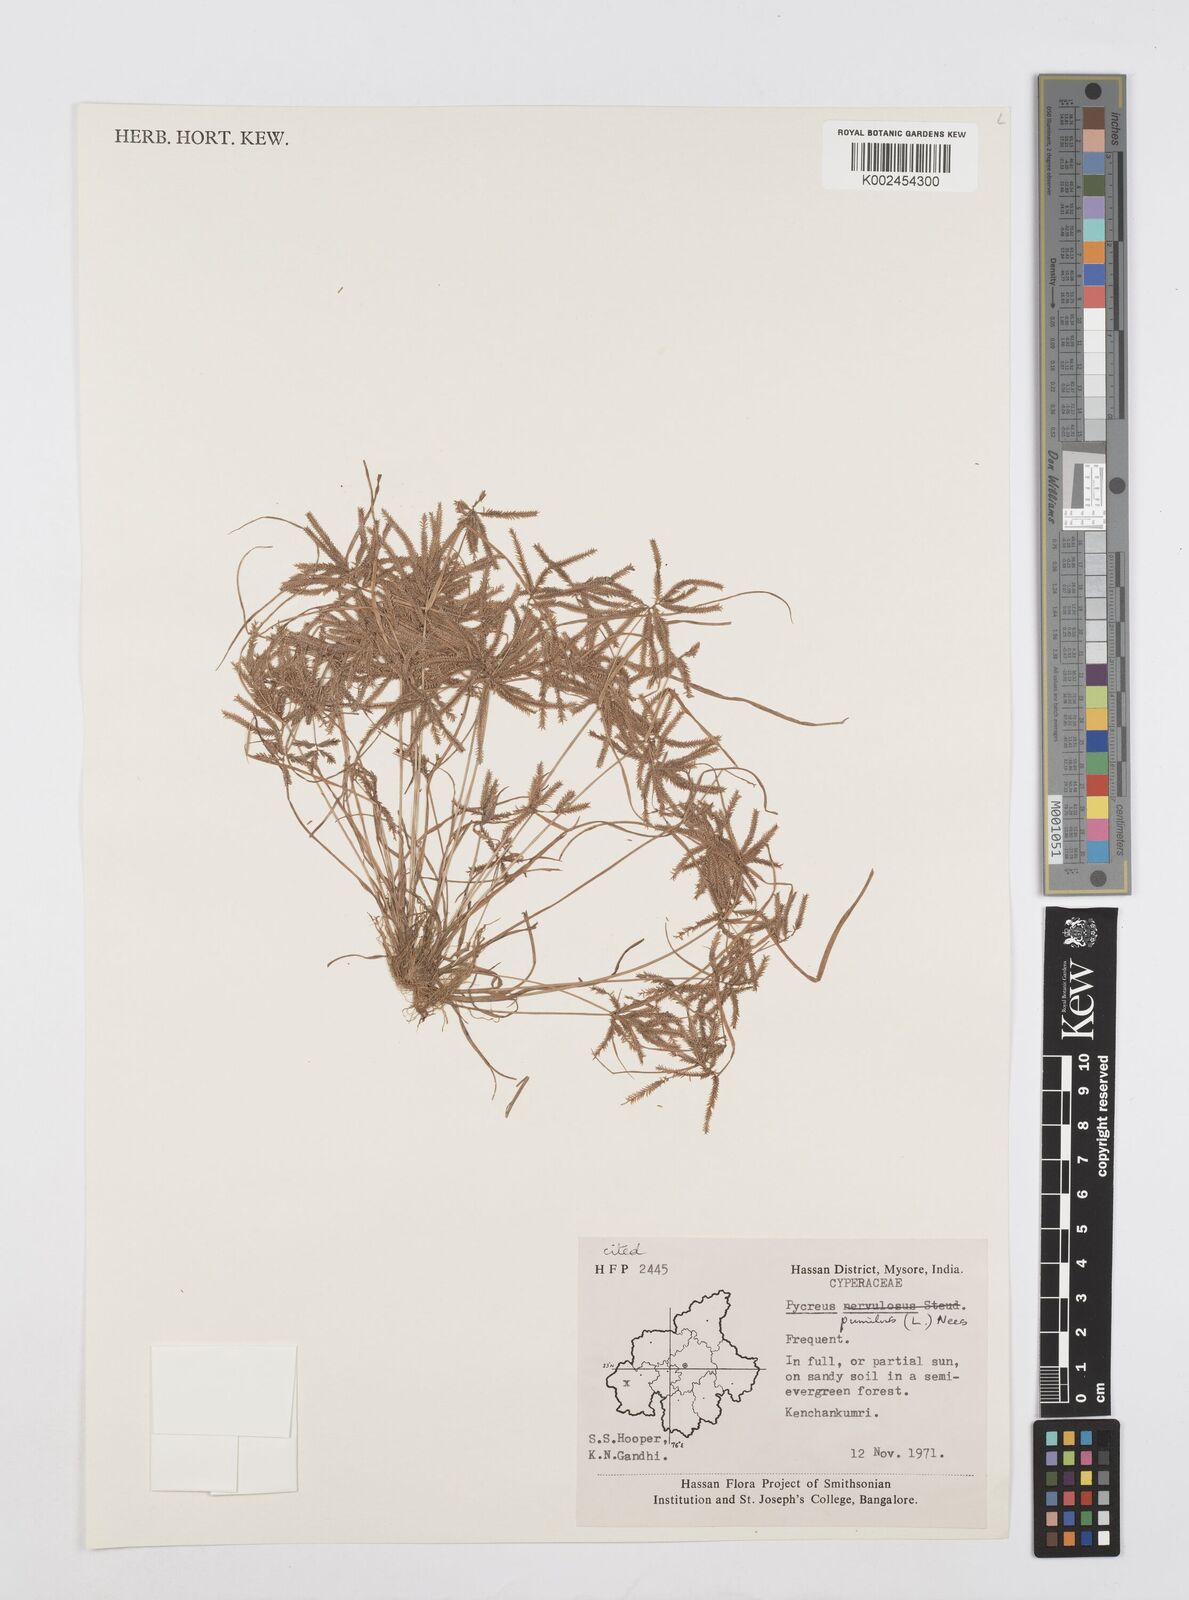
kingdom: Plantae
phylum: Tracheophyta
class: Liliopsida
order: Poales
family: Cyperaceae
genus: Cyperus
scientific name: Cyperus pumilus
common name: Low flatsedge
